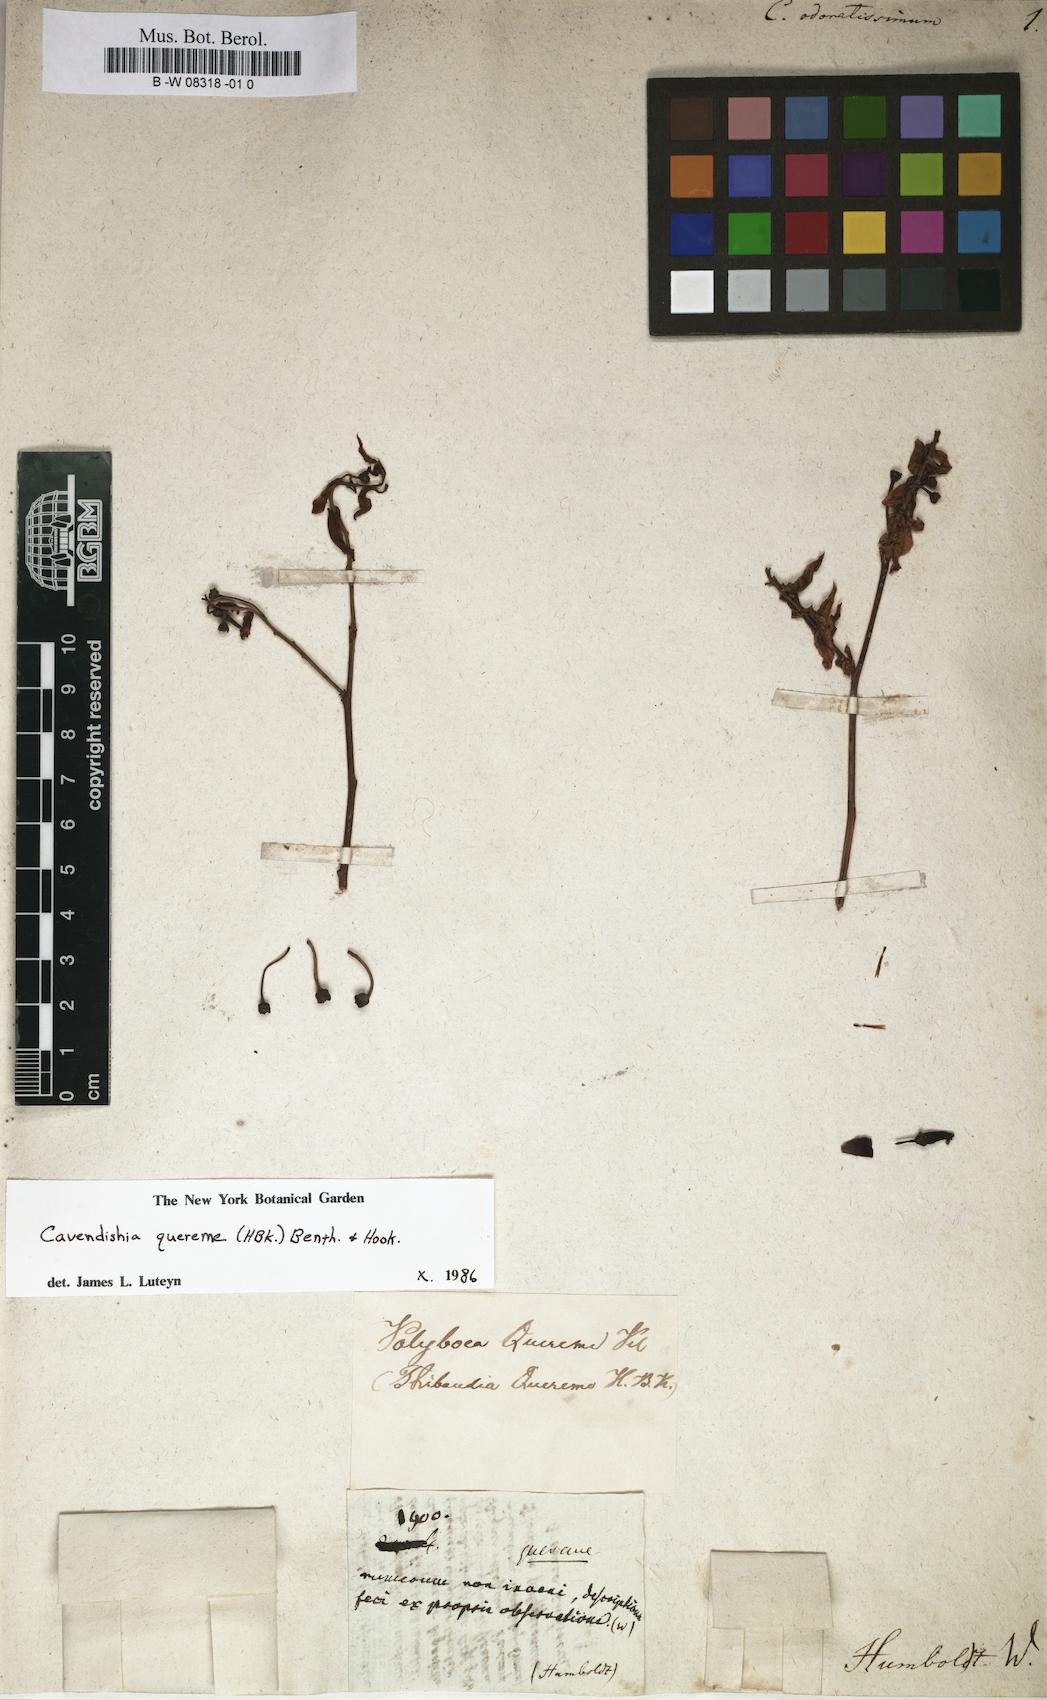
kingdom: Plantae
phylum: Tracheophyta
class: Magnoliopsida
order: Ericales
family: Ericaceae
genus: Cavendishia
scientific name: Cavendishia quereme
